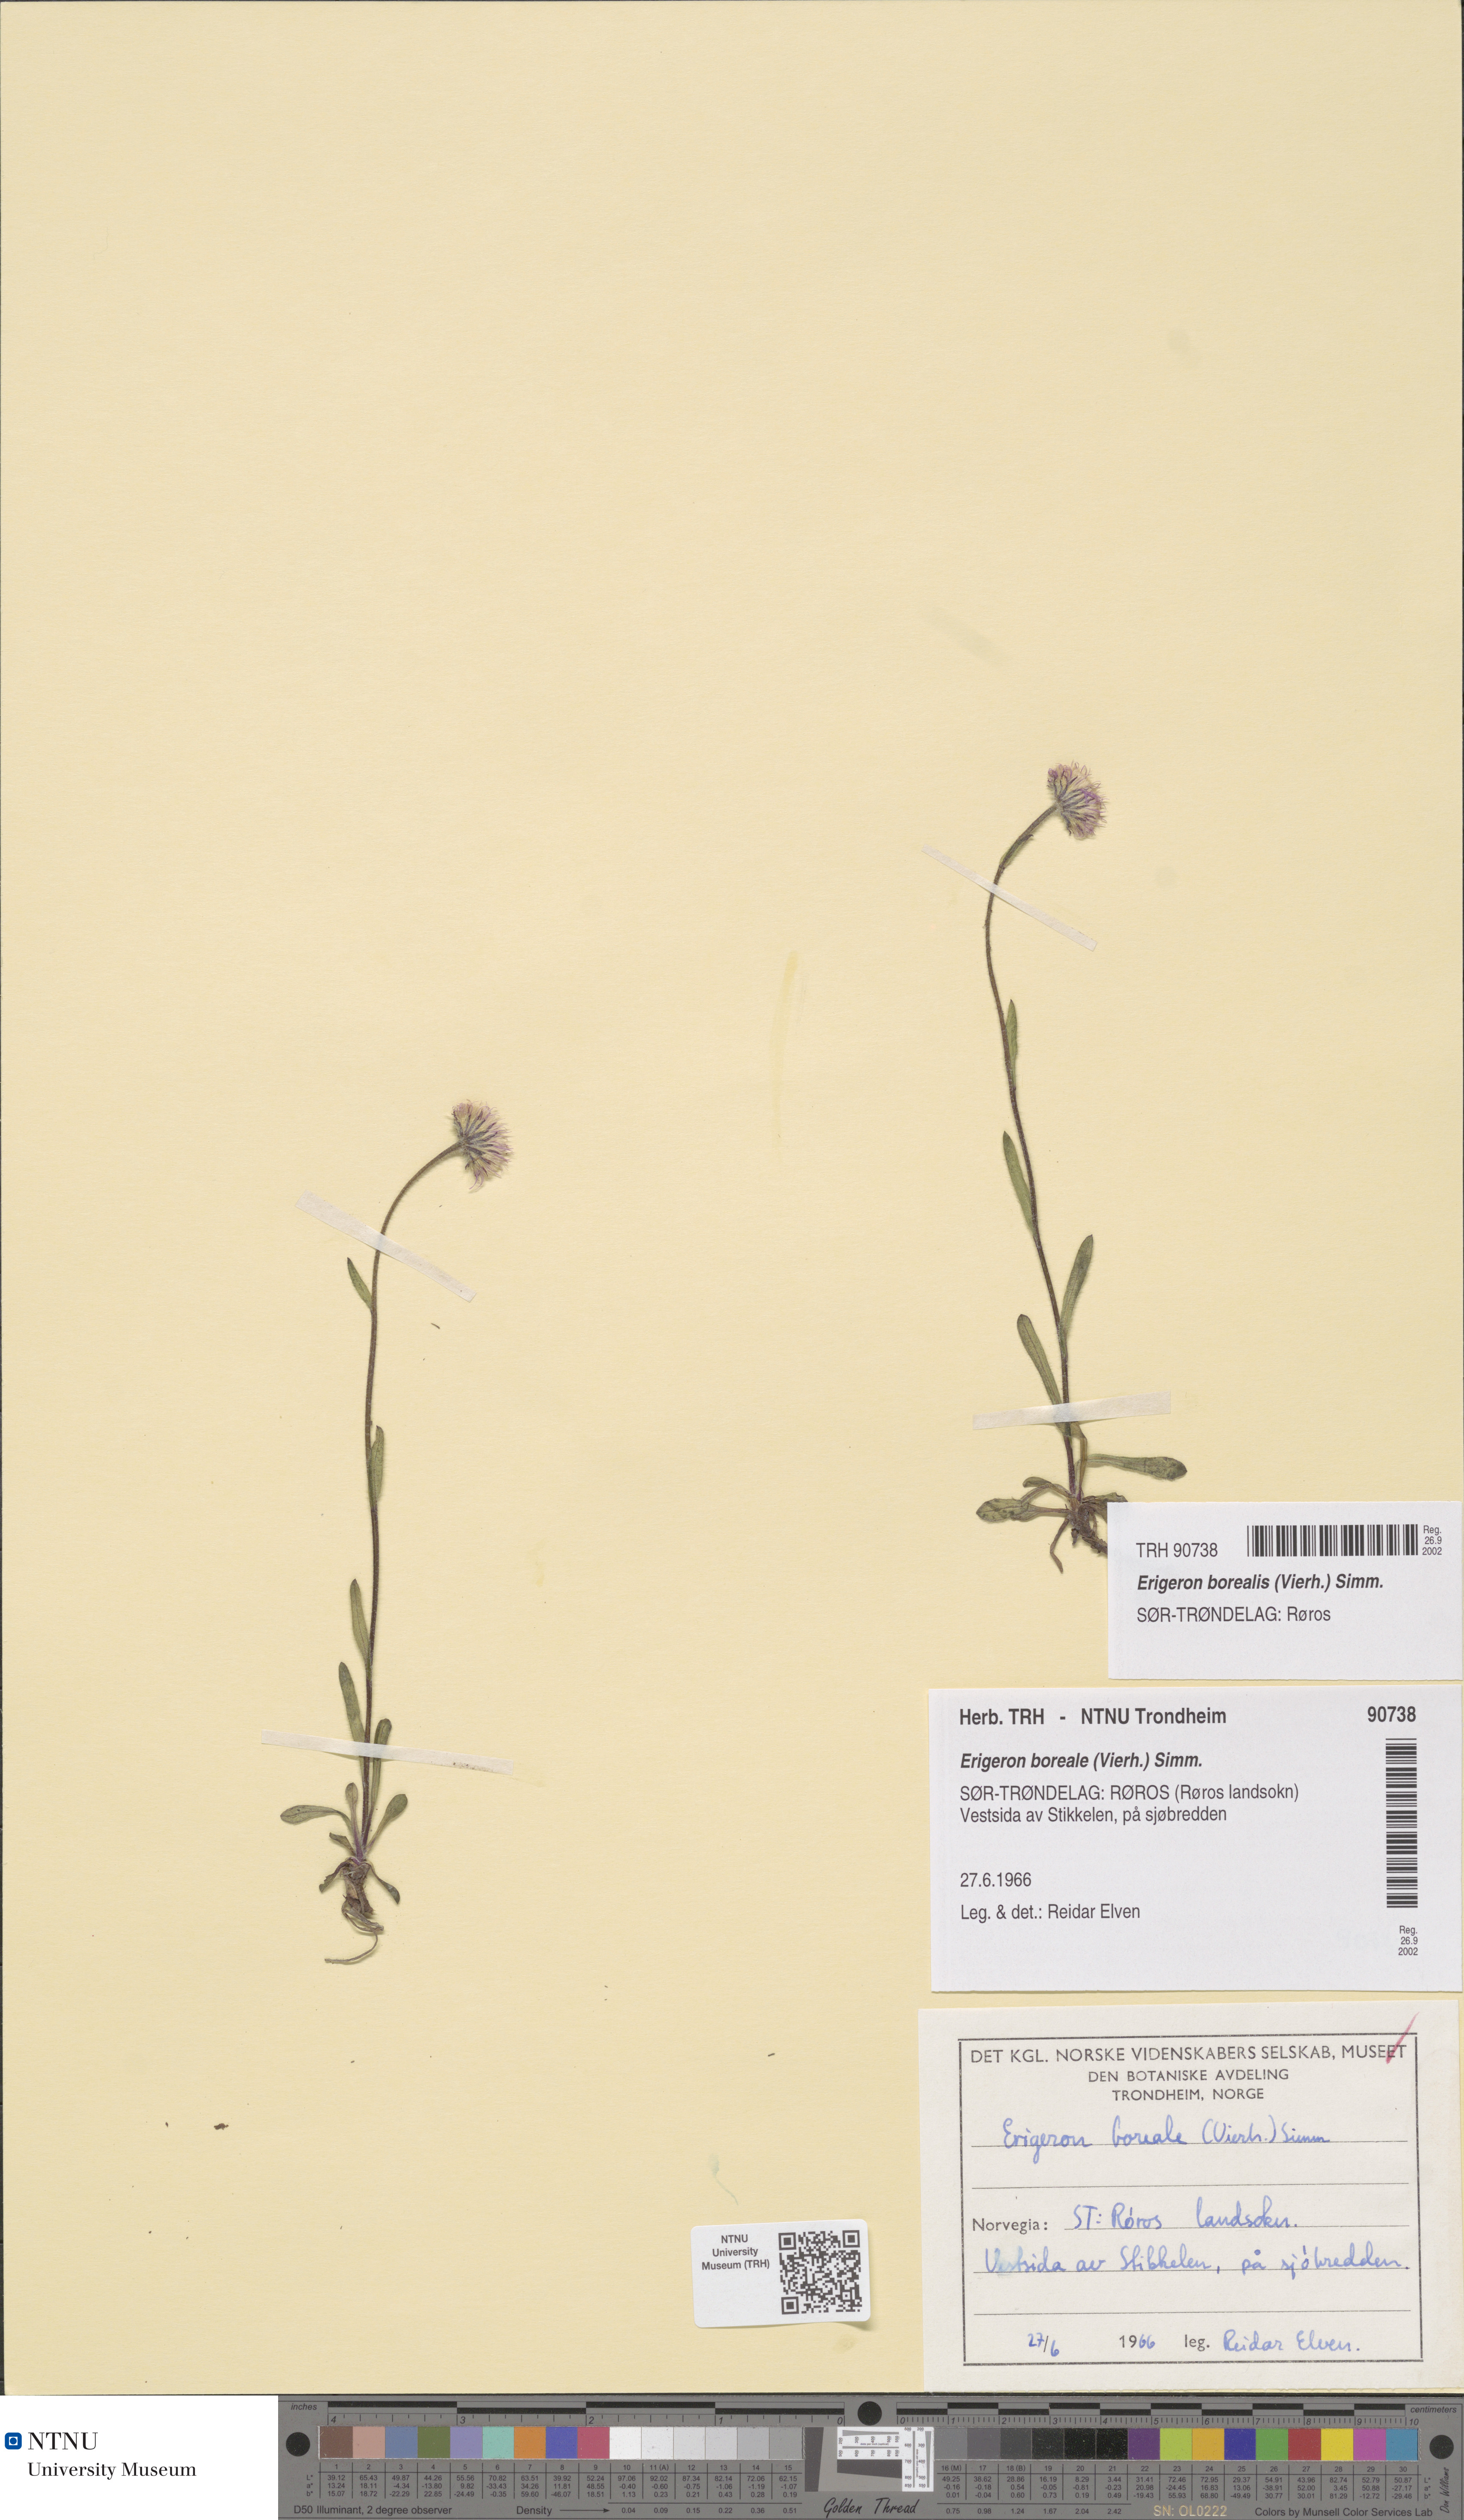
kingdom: Plantae
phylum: Tracheophyta
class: Magnoliopsida
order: Asterales
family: Asteraceae
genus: Erigeron
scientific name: Erigeron borealis
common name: Alpine fleabane
